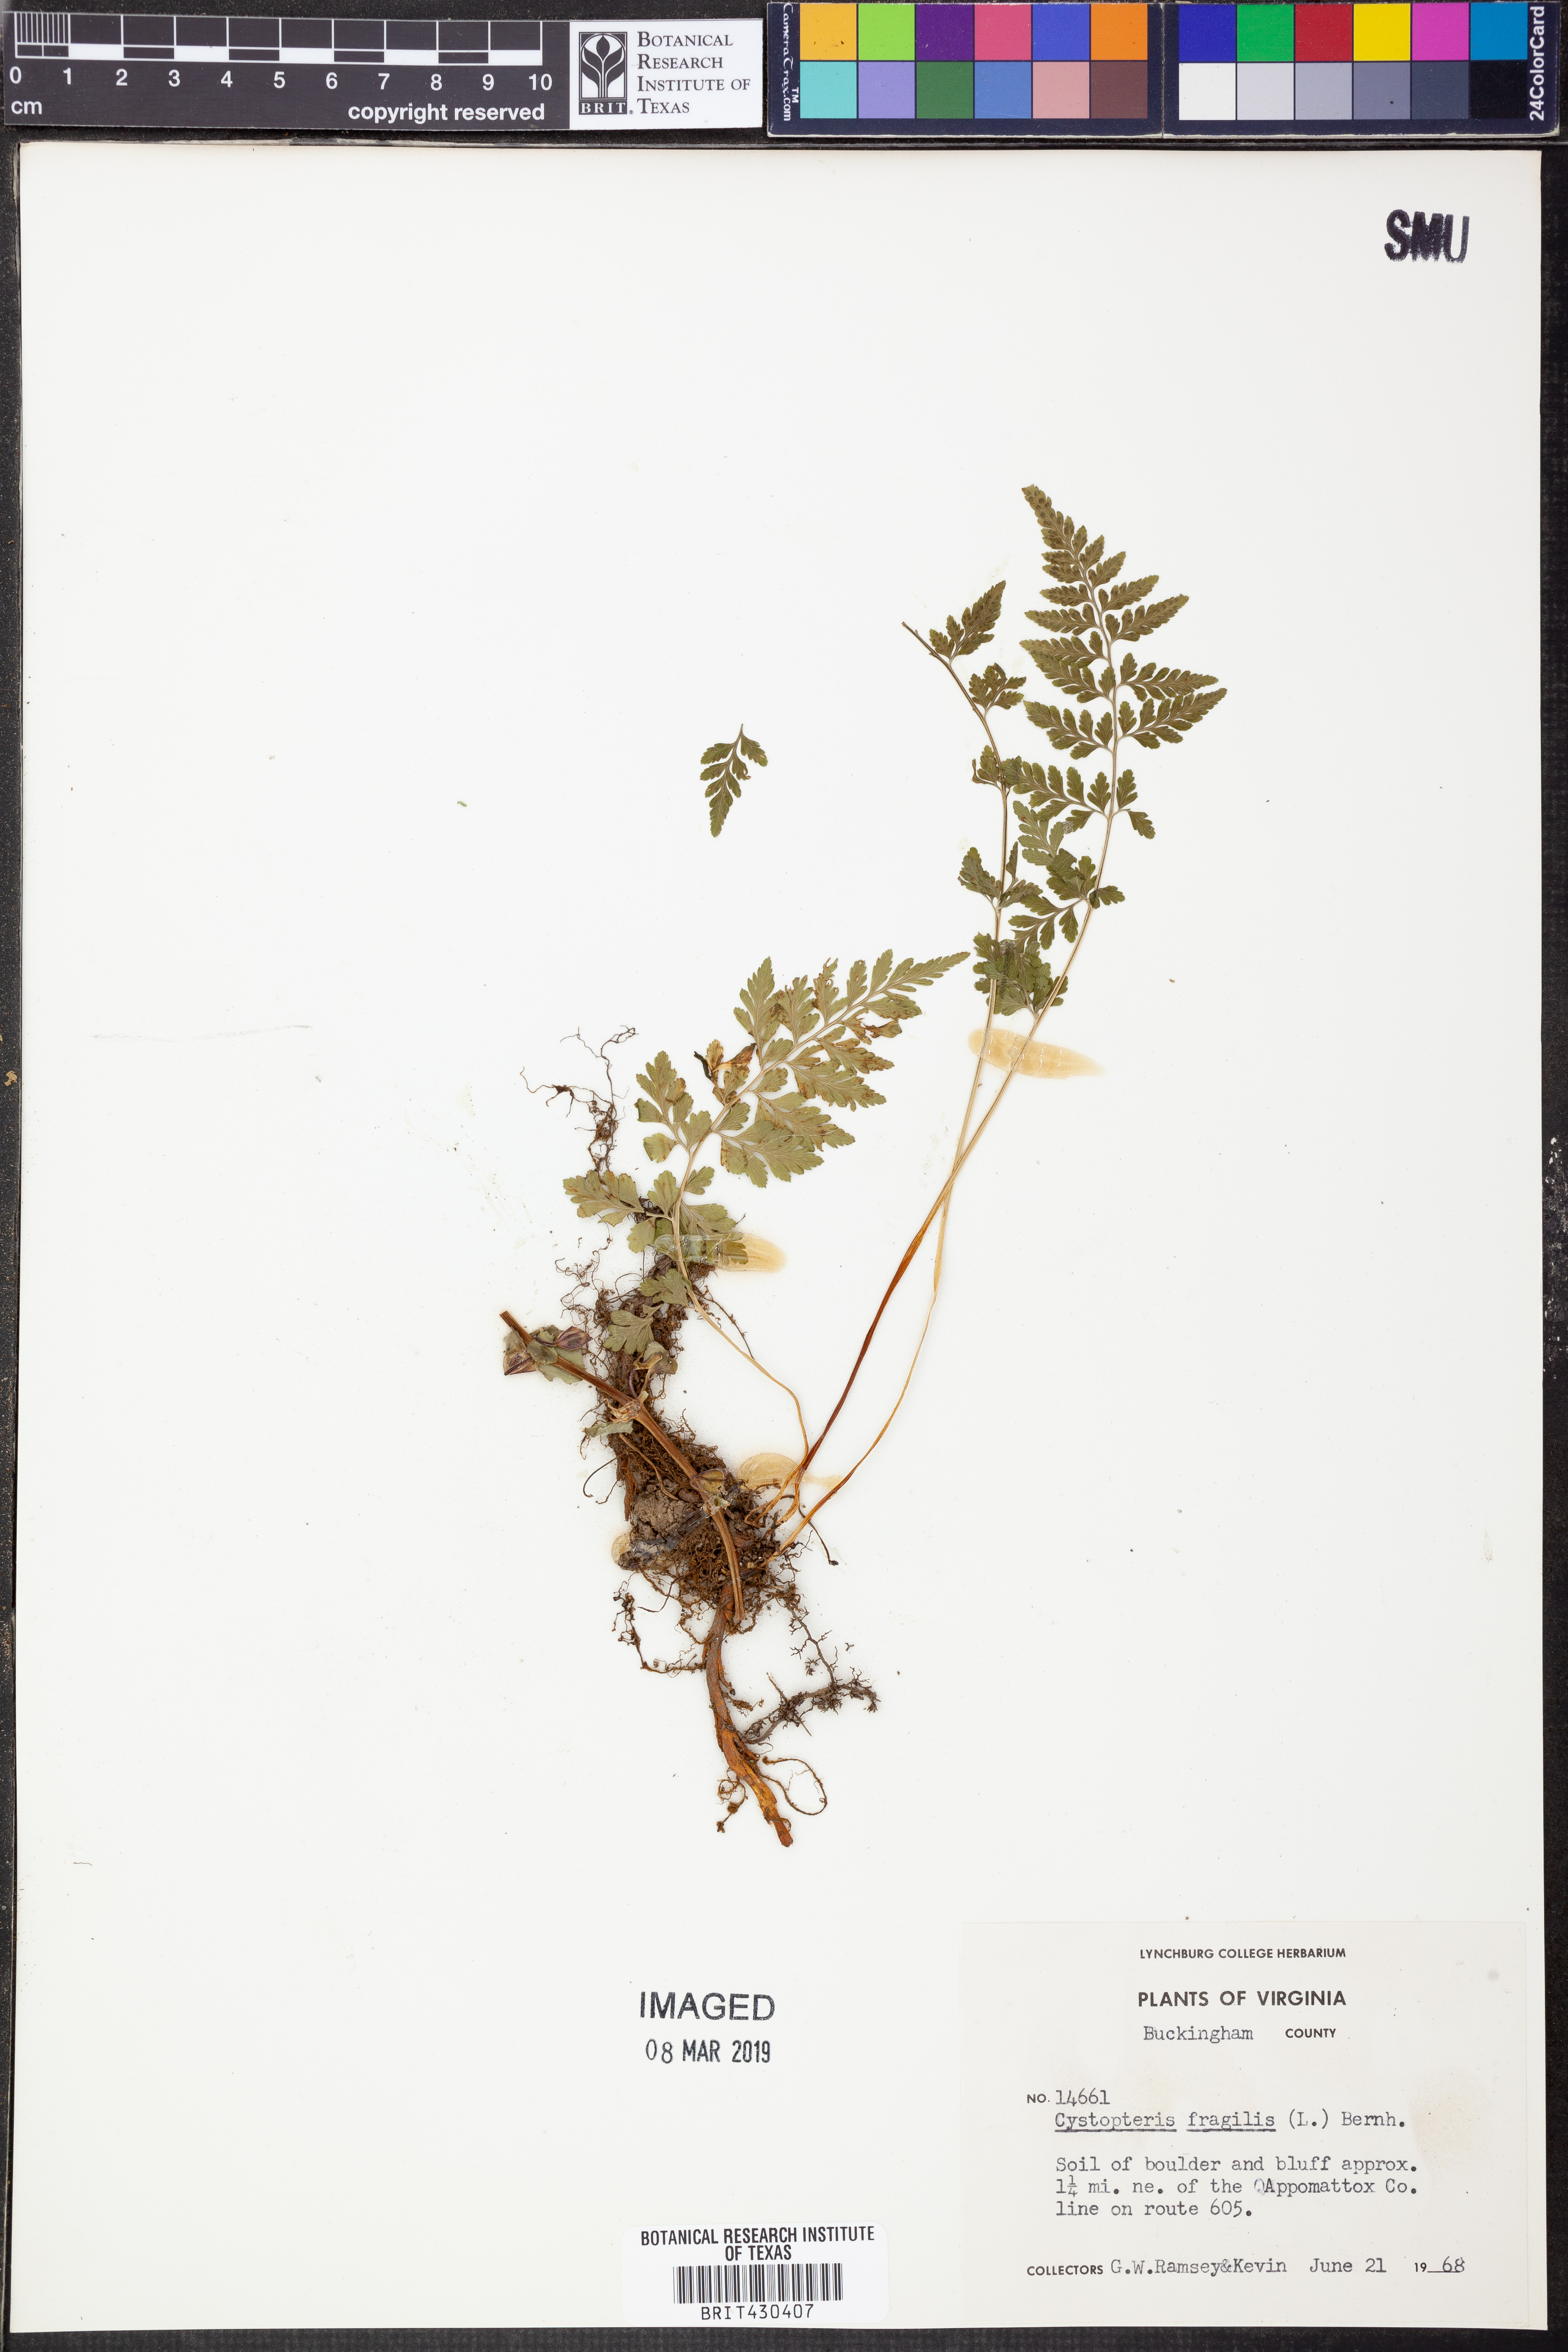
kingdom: Plantae
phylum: Tracheophyta
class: Polypodiopsida
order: Polypodiales
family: Cystopteridaceae
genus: Cystopteris
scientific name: Cystopteris fragilis
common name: Brittle bladder fern
